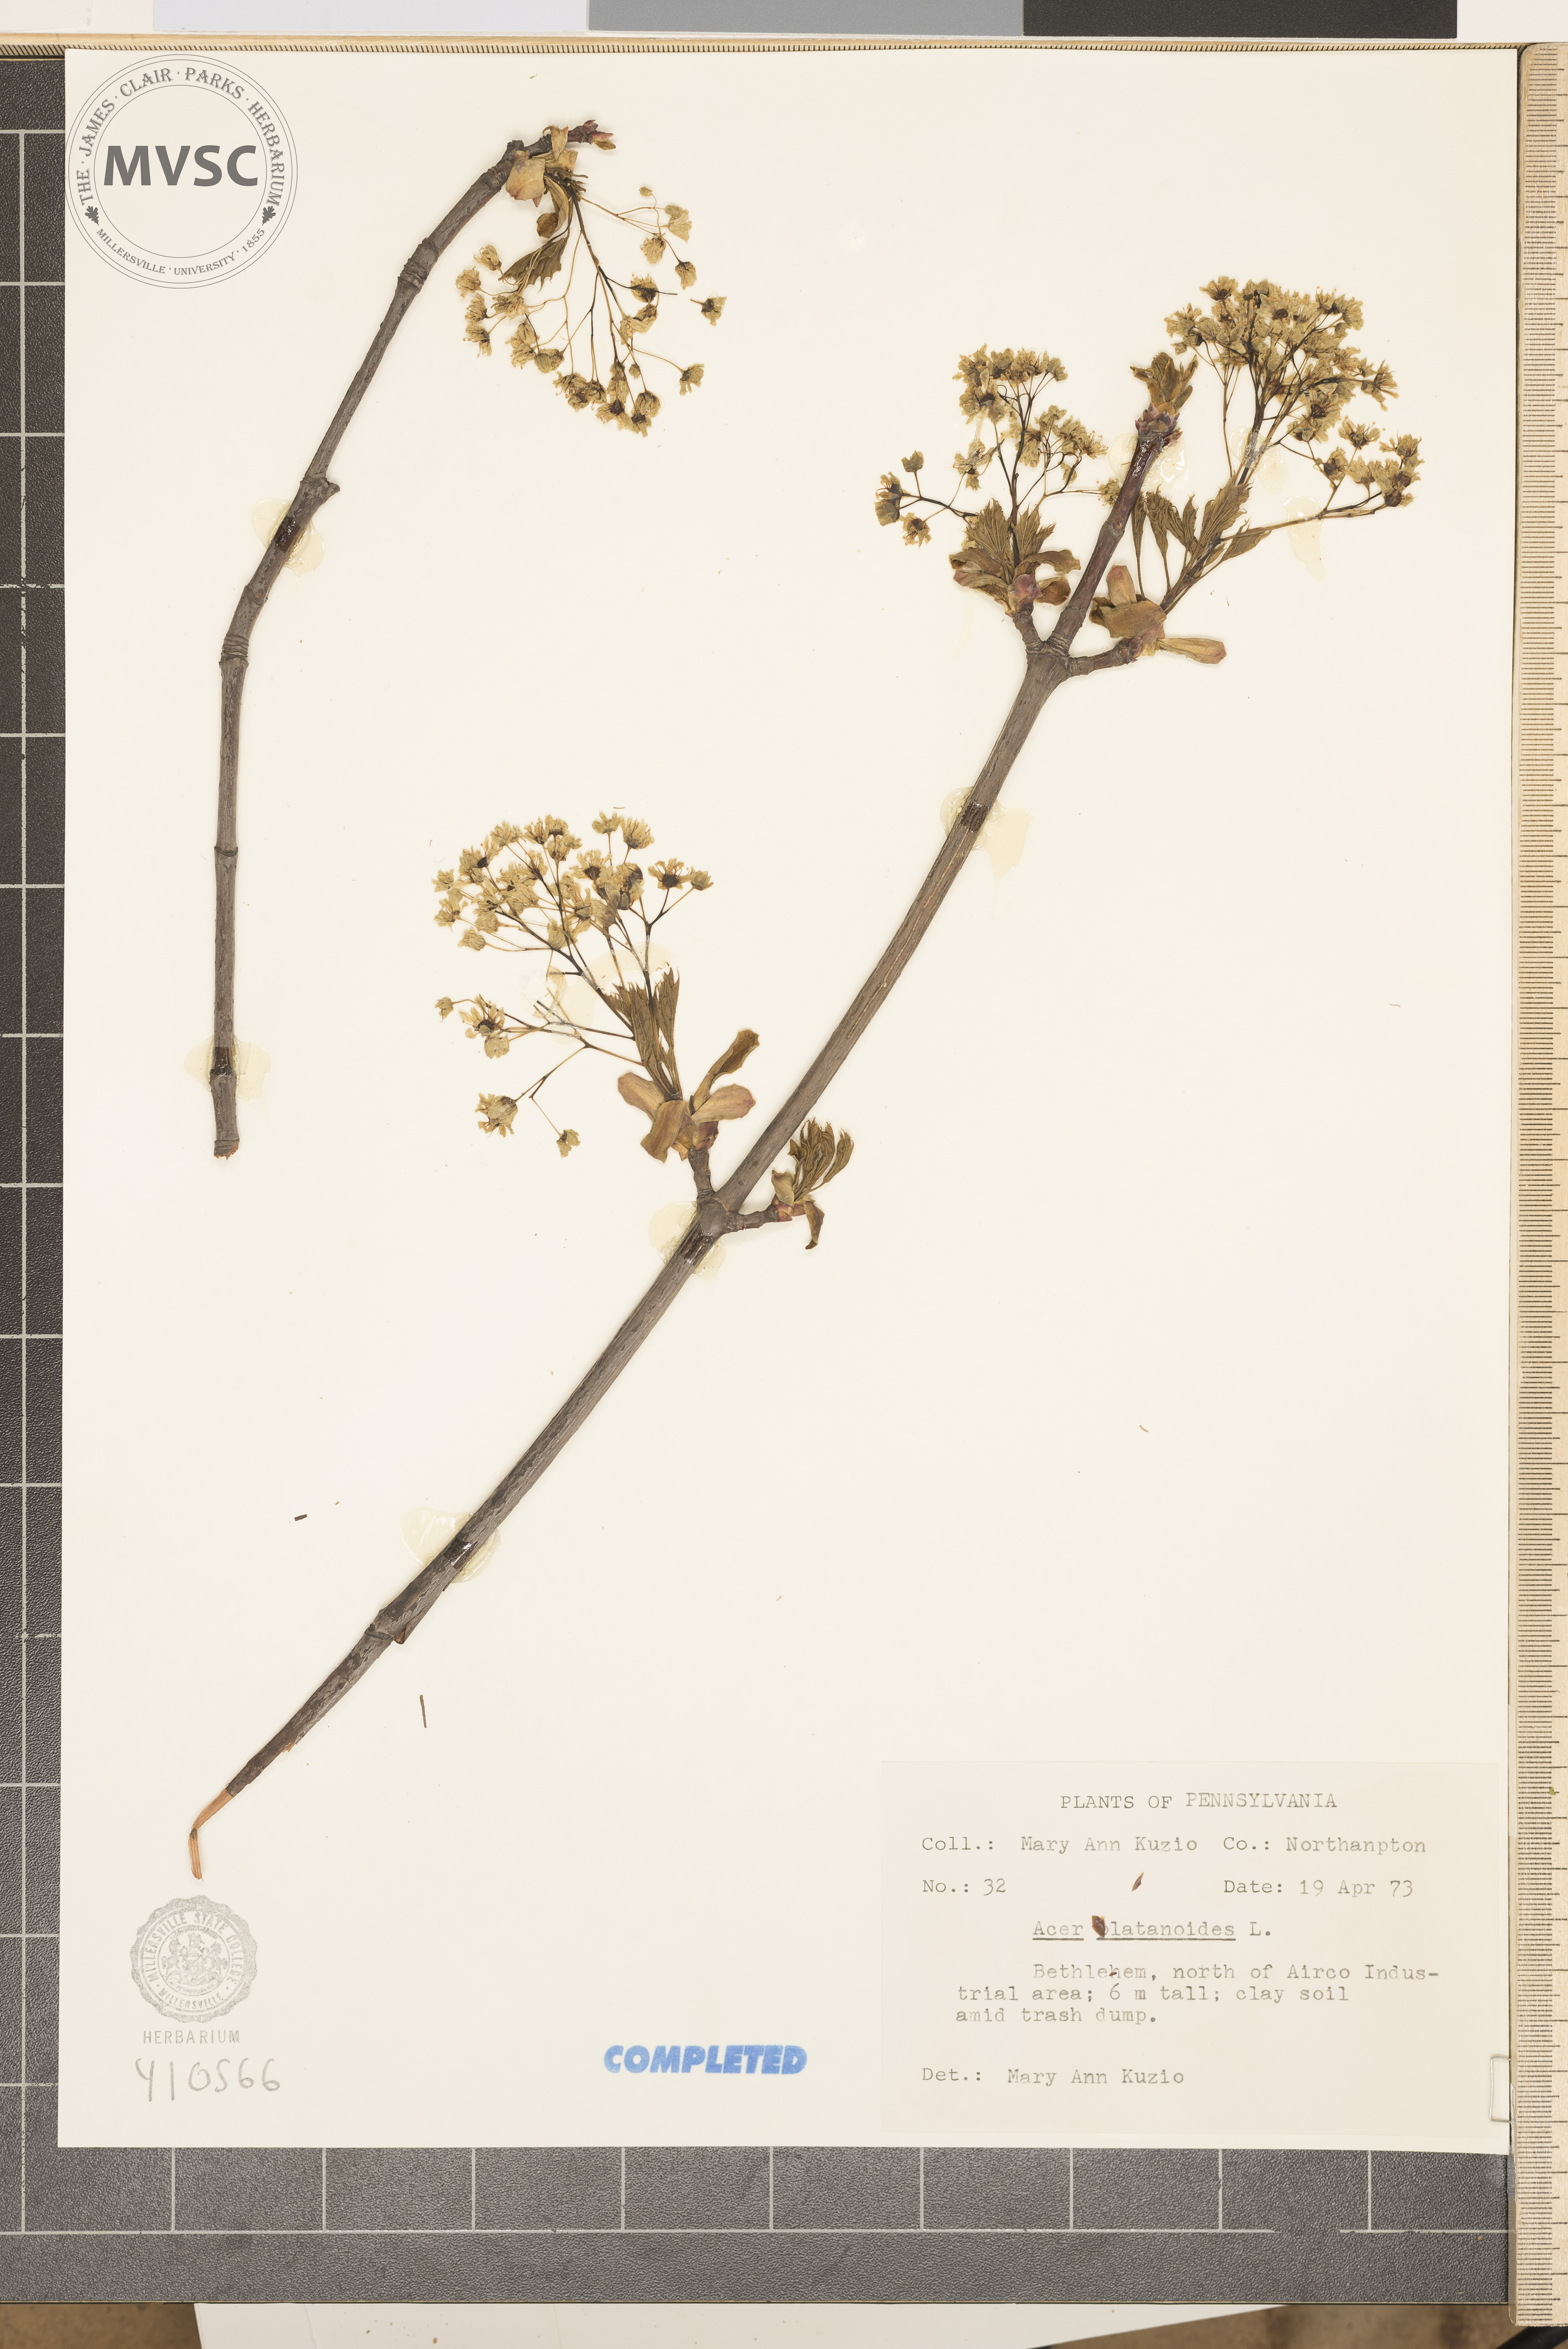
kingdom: Plantae
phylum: Tracheophyta
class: Magnoliopsida
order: Sapindales
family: Sapindaceae
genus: Acer
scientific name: Acer platanoides
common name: Norway maple
